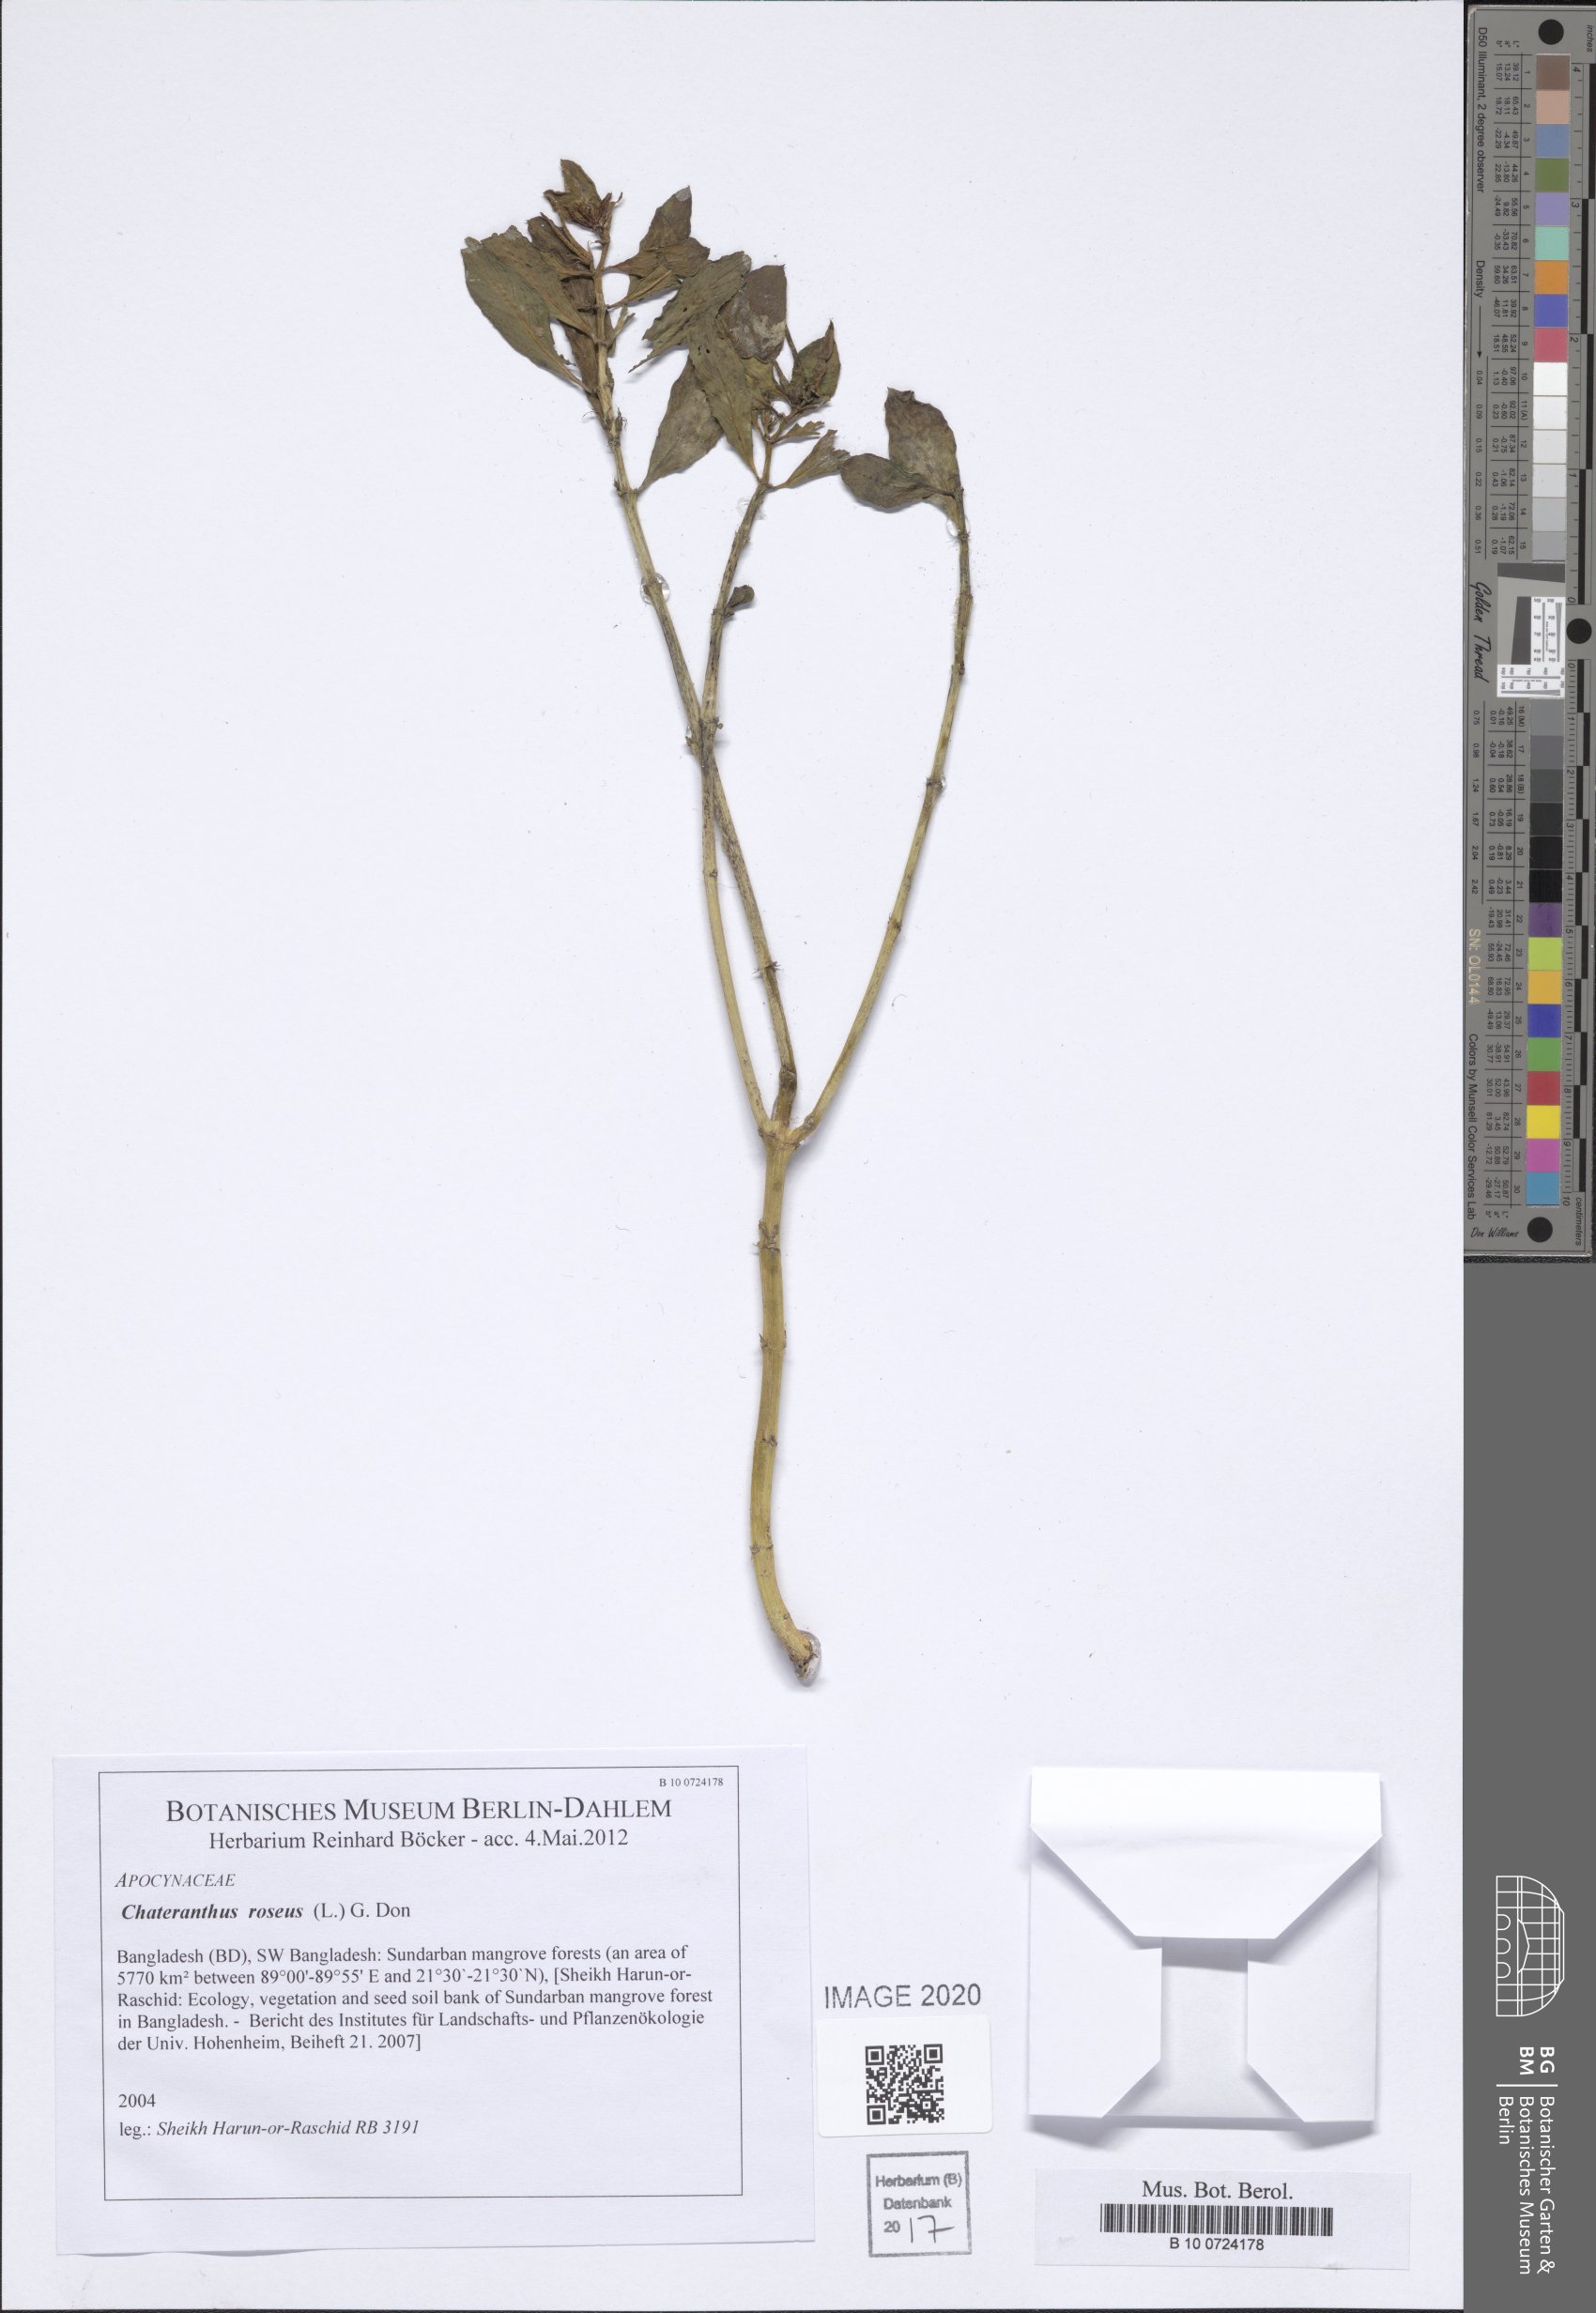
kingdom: Plantae
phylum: Tracheophyta
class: Magnoliopsida
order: Gentianales
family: Apocynaceae
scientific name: Apocynaceae
